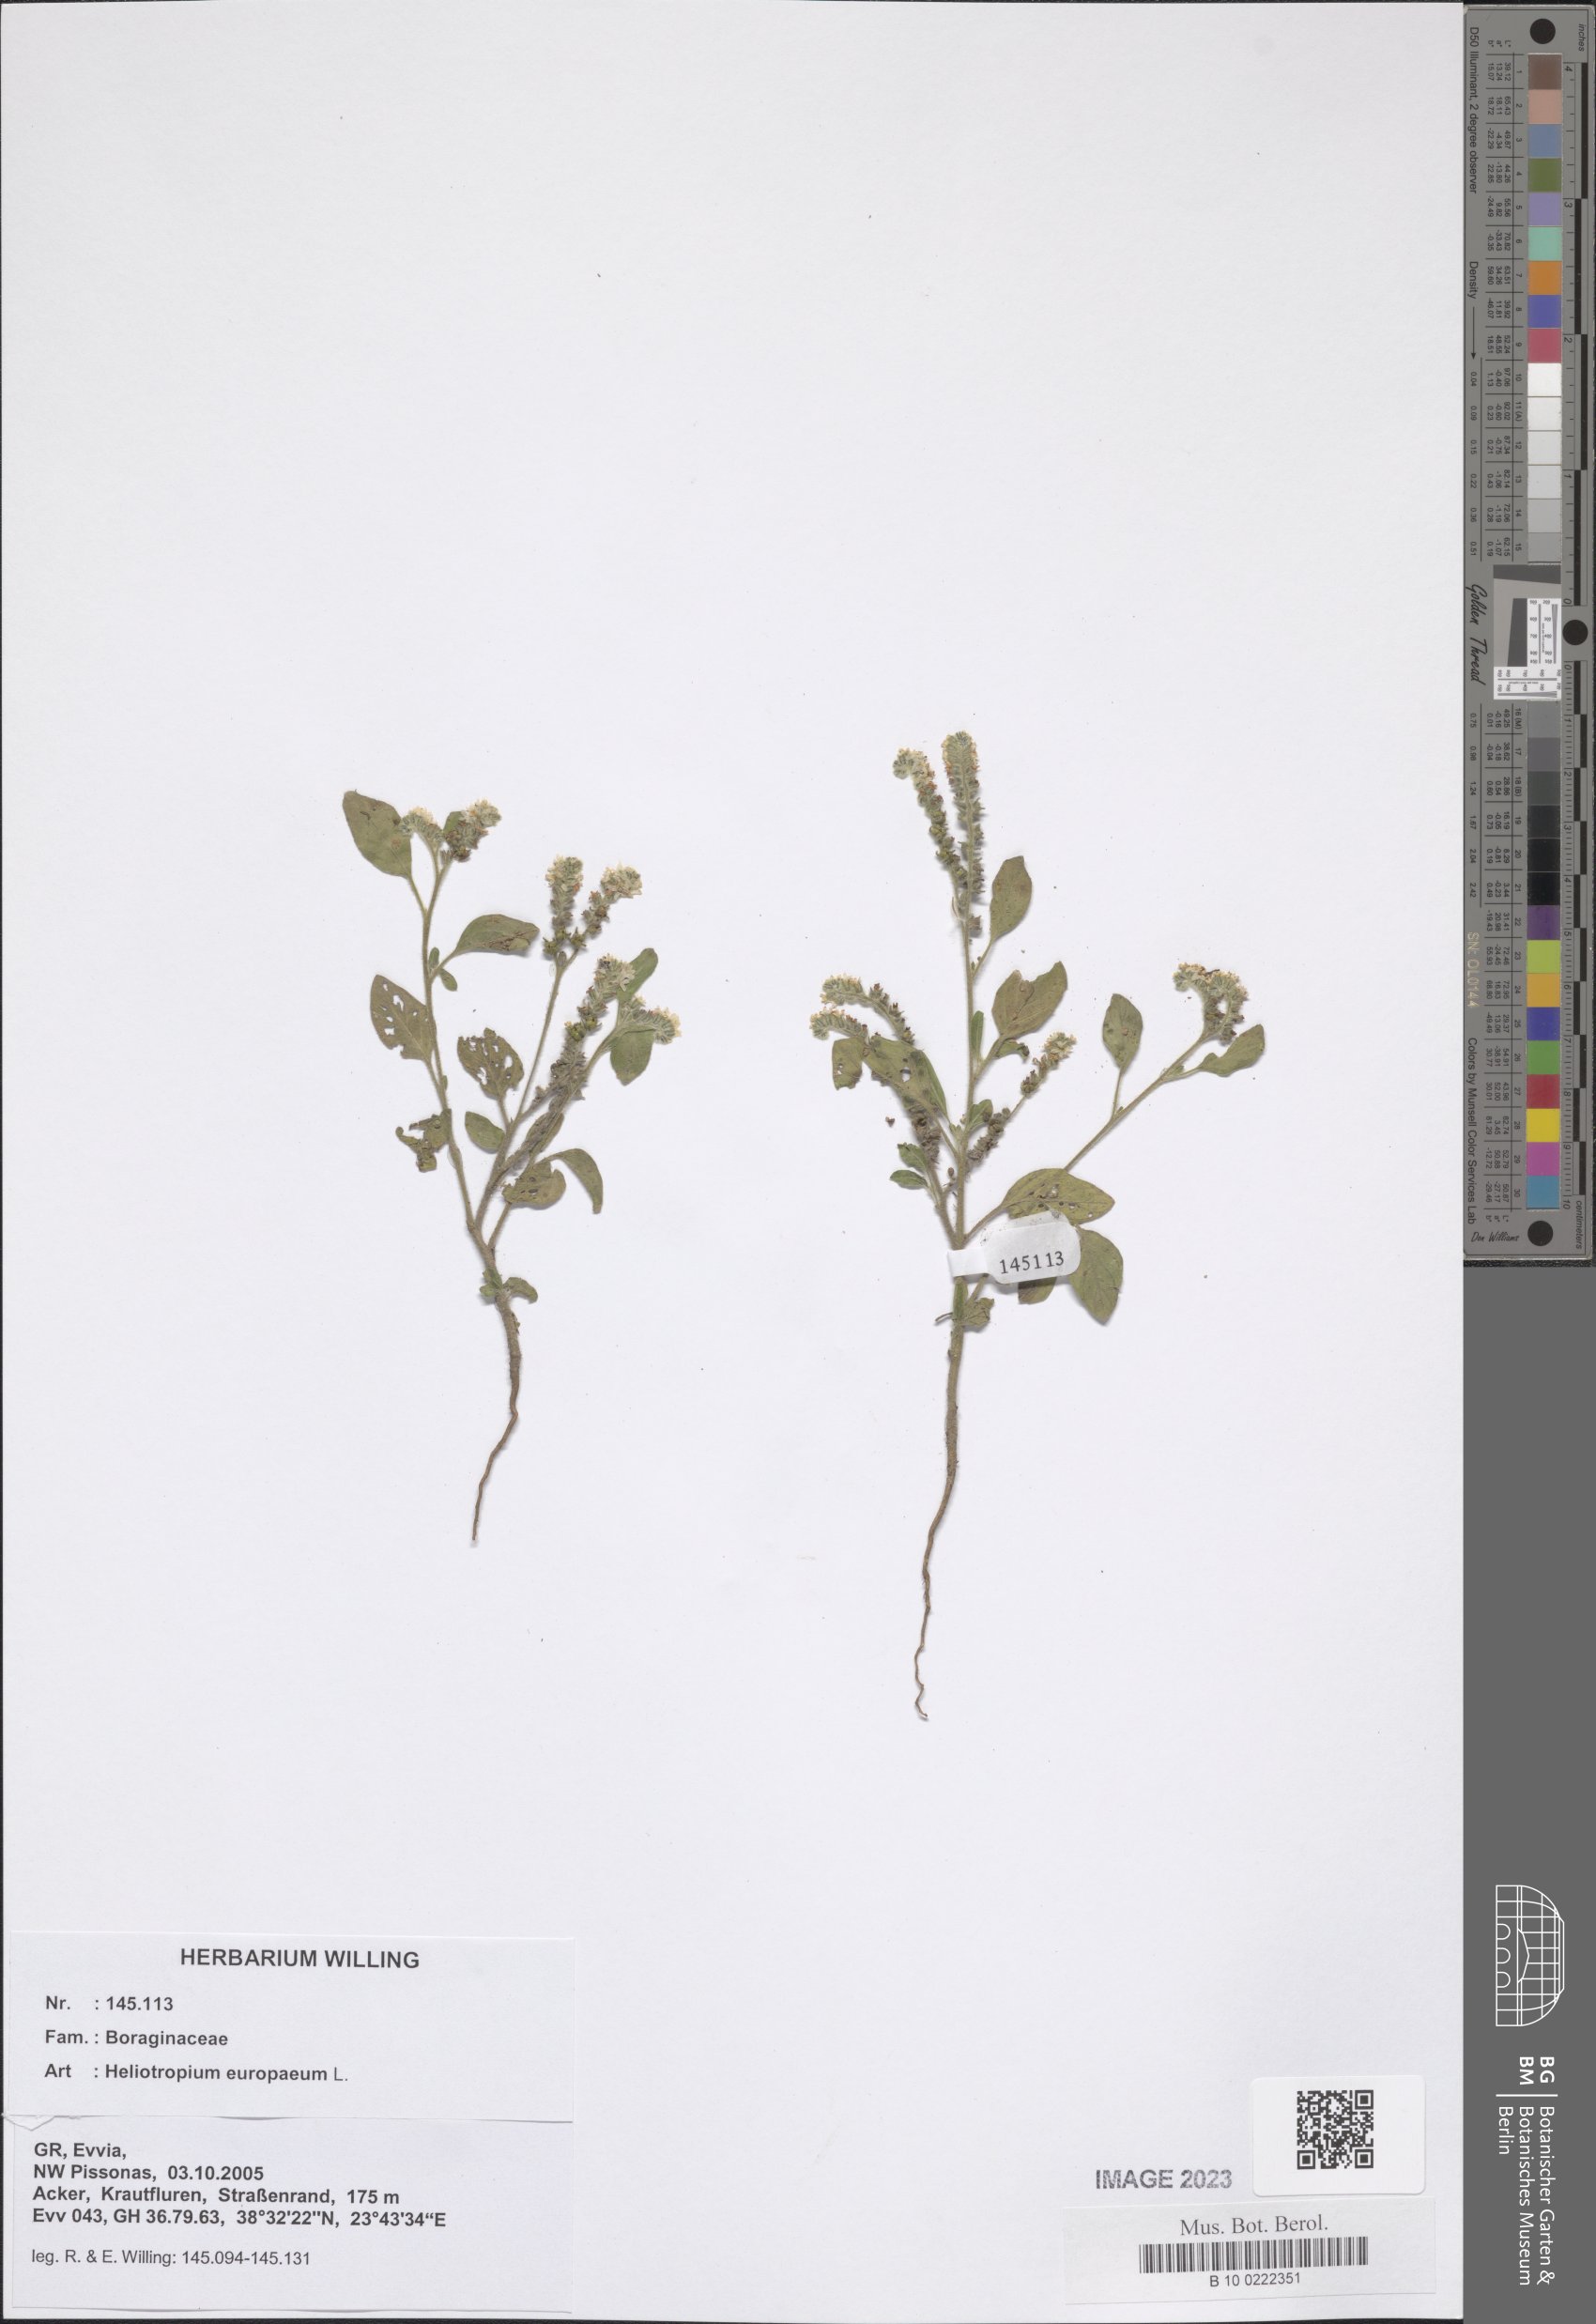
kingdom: Plantae
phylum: Tracheophyta
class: Magnoliopsida
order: Boraginales
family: Heliotropiaceae
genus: Heliotropium
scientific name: Heliotropium europaeum
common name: European heliotrope
